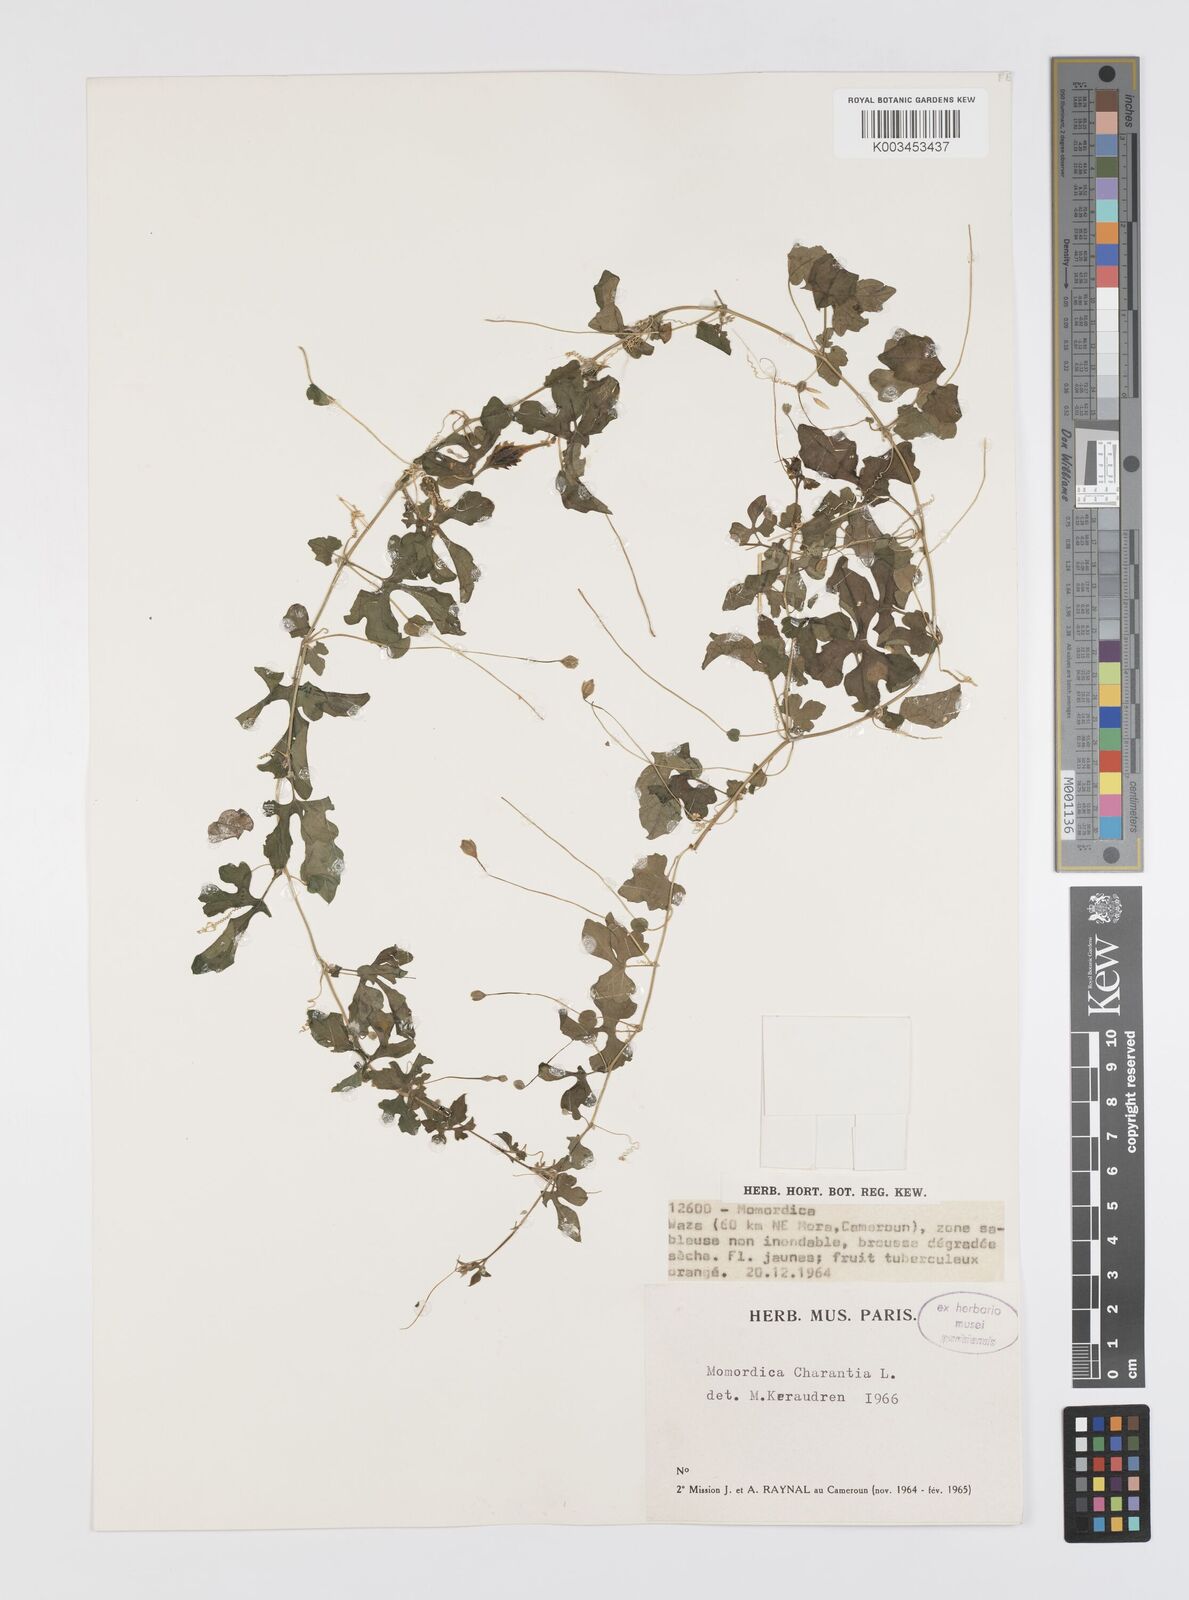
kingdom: Plantae
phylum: Tracheophyta
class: Magnoliopsida
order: Cucurbitales
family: Cucurbitaceae
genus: Momordica
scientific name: Momordica charantia
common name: Balsampear
